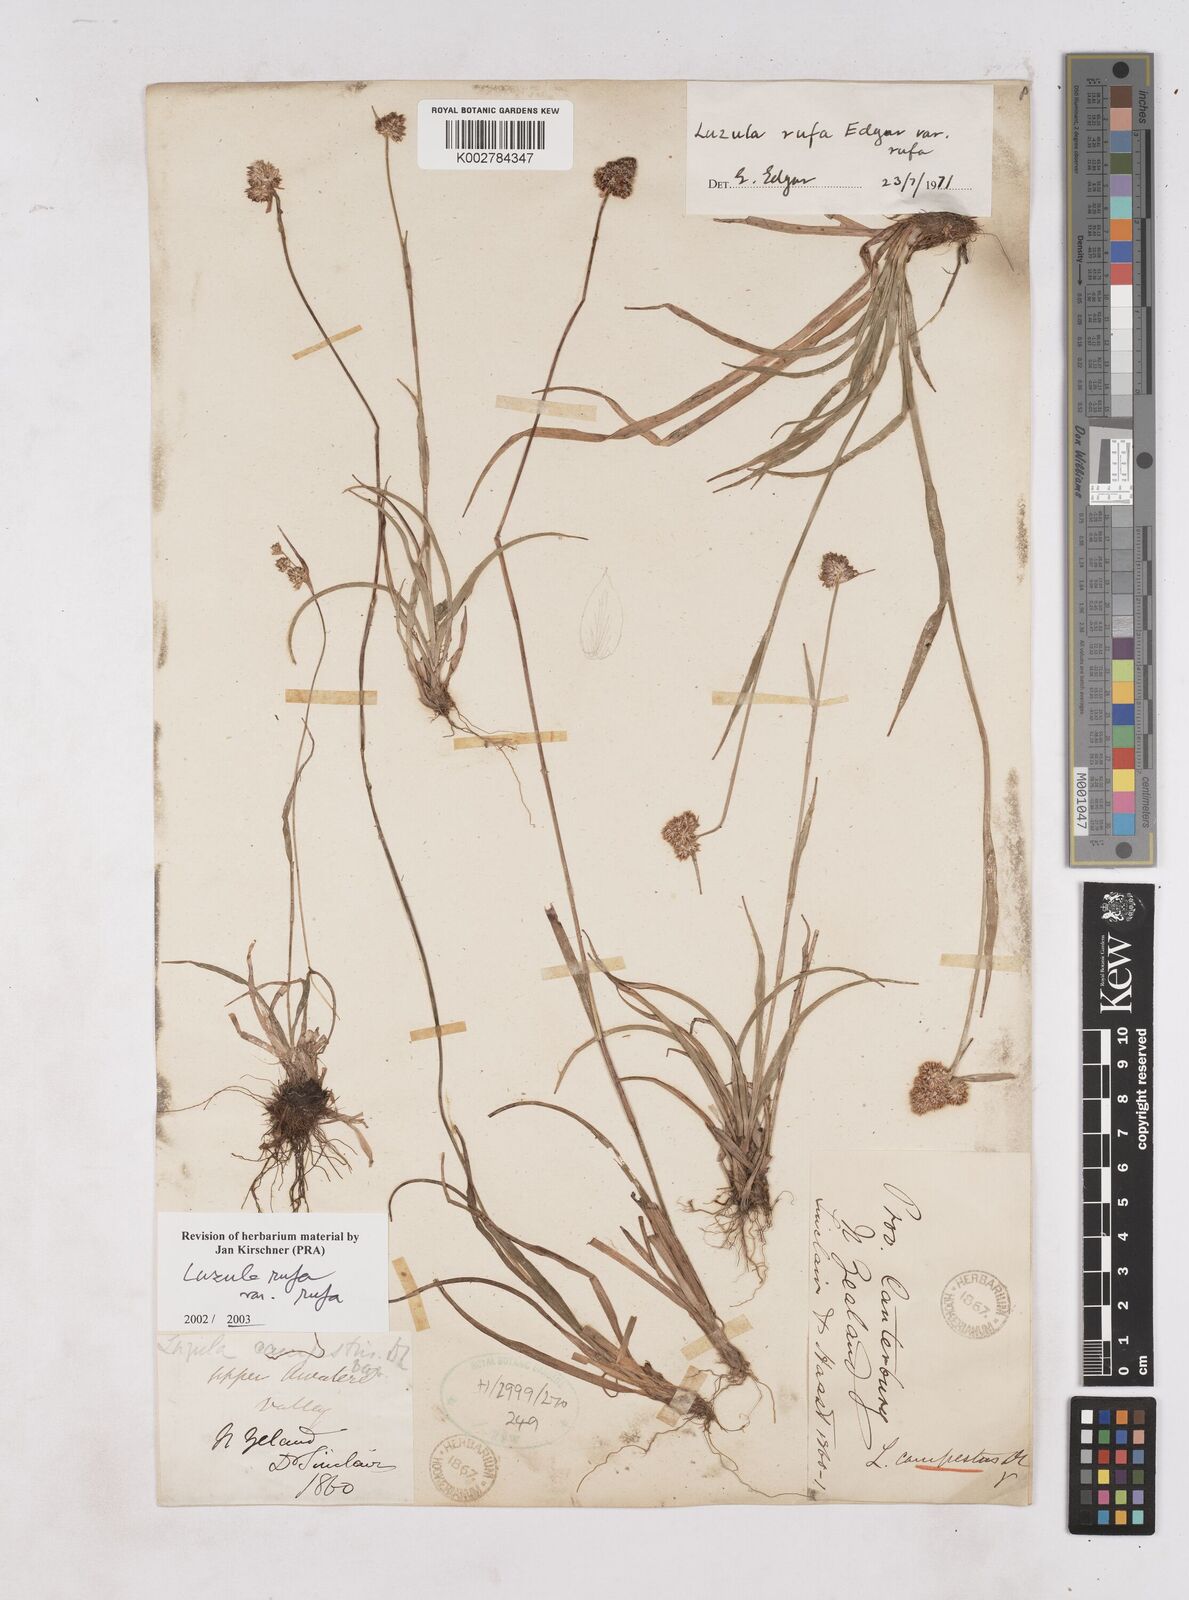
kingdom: Plantae
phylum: Tracheophyta
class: Liliopsida
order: Poales
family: Juncaceae
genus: Luzula
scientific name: Luzula rufa
